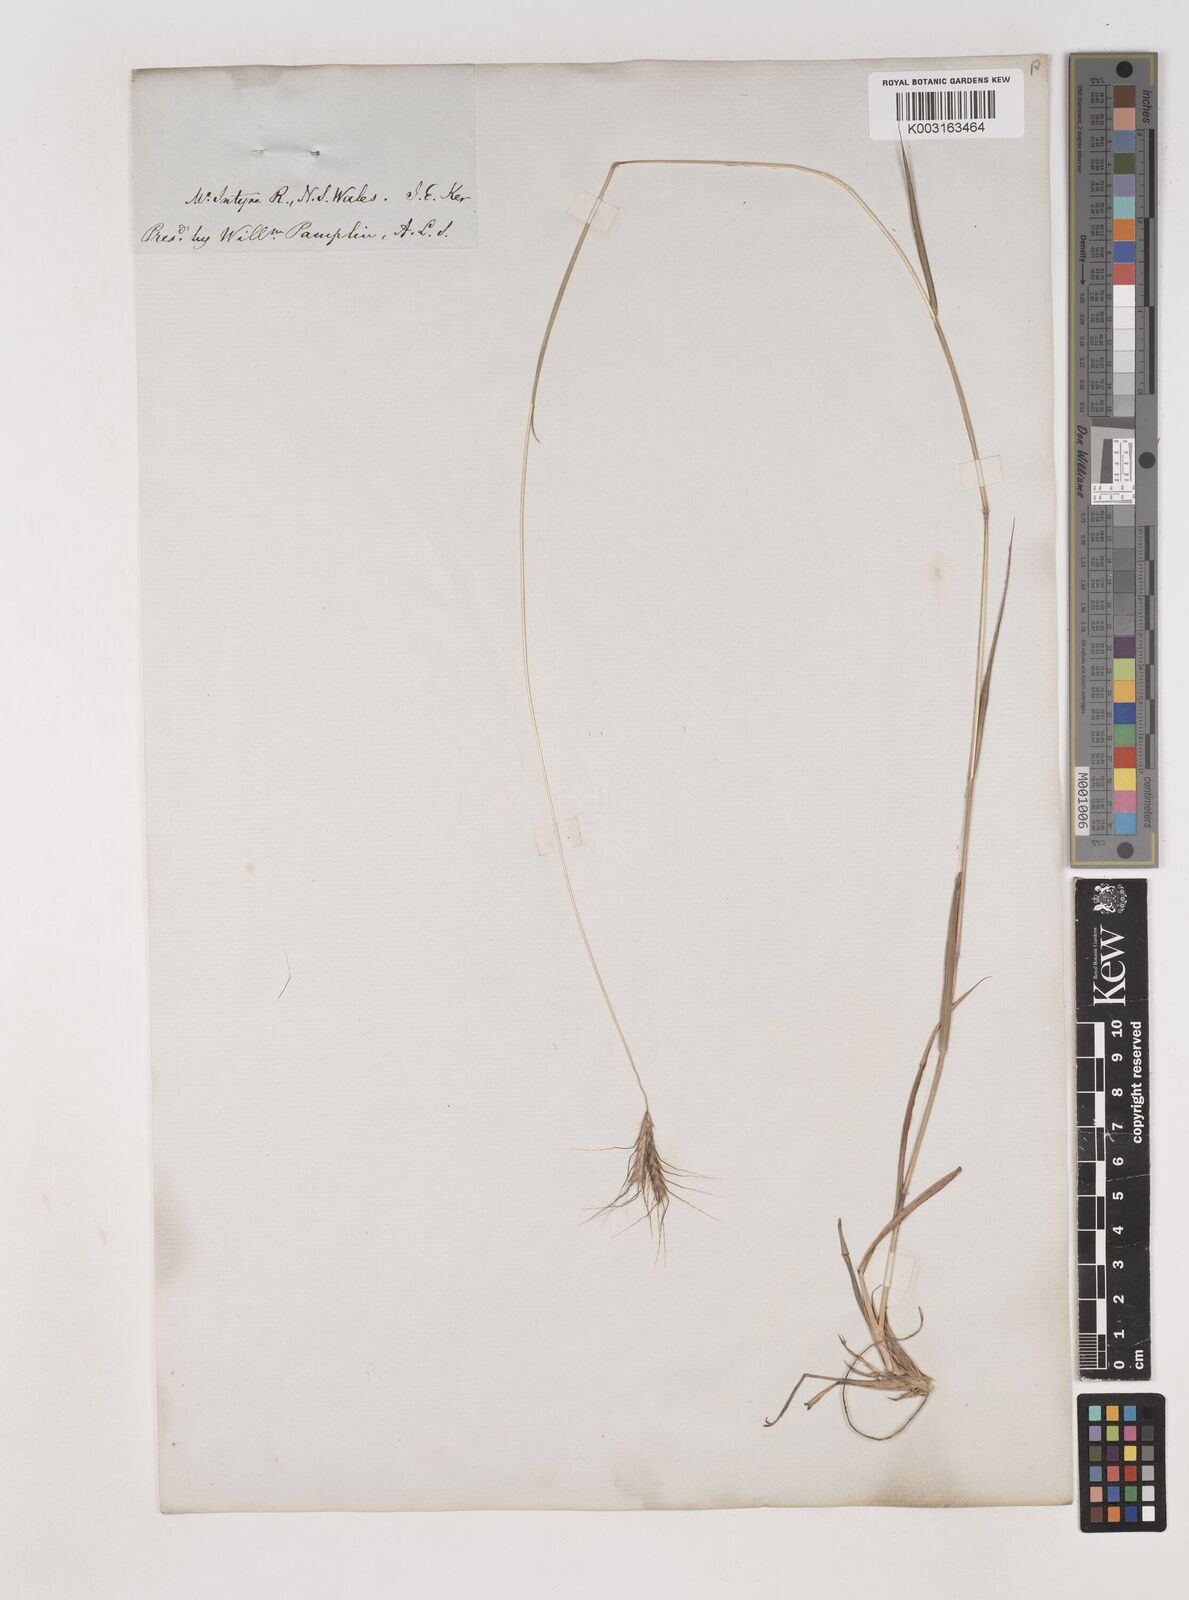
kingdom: Plantae
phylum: Tracheophyta
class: Liliopsida
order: Poales
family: Poaceae
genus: Dichanthium
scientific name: Dichanthium sericeum
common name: Silky bluestem
